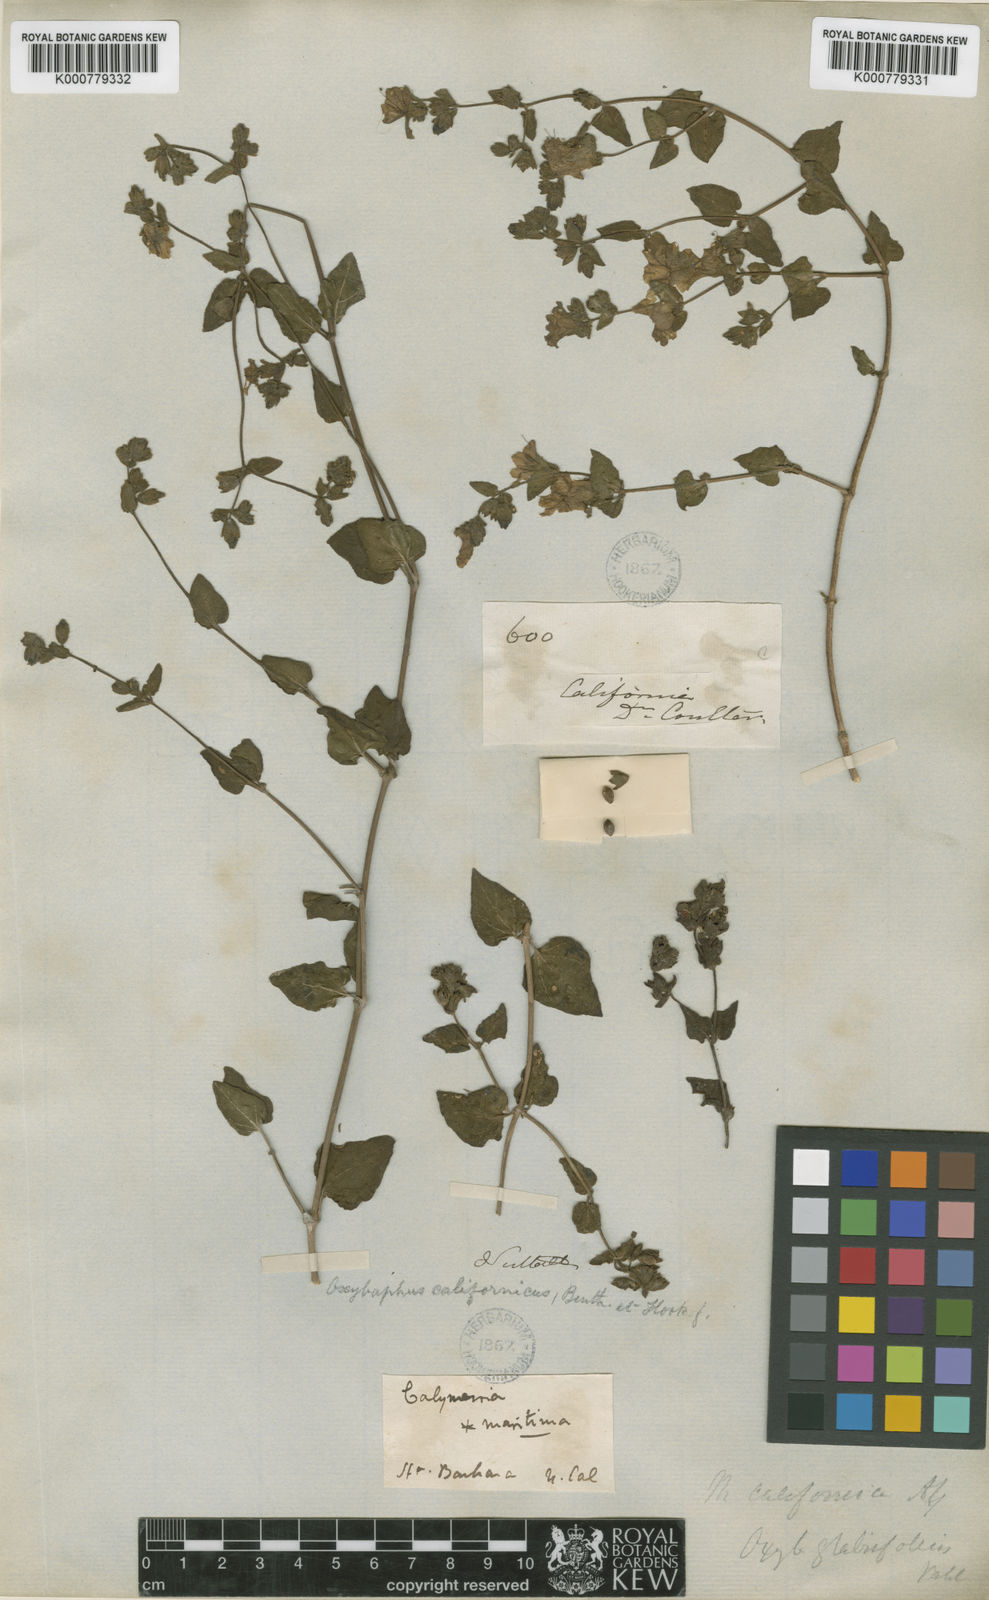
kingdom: Plantae
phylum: Tracheophyta
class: Magnoliopsida
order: Caryophyllales
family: Nyctaginaceae
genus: Mirabilis
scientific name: Mirabilis laevis
